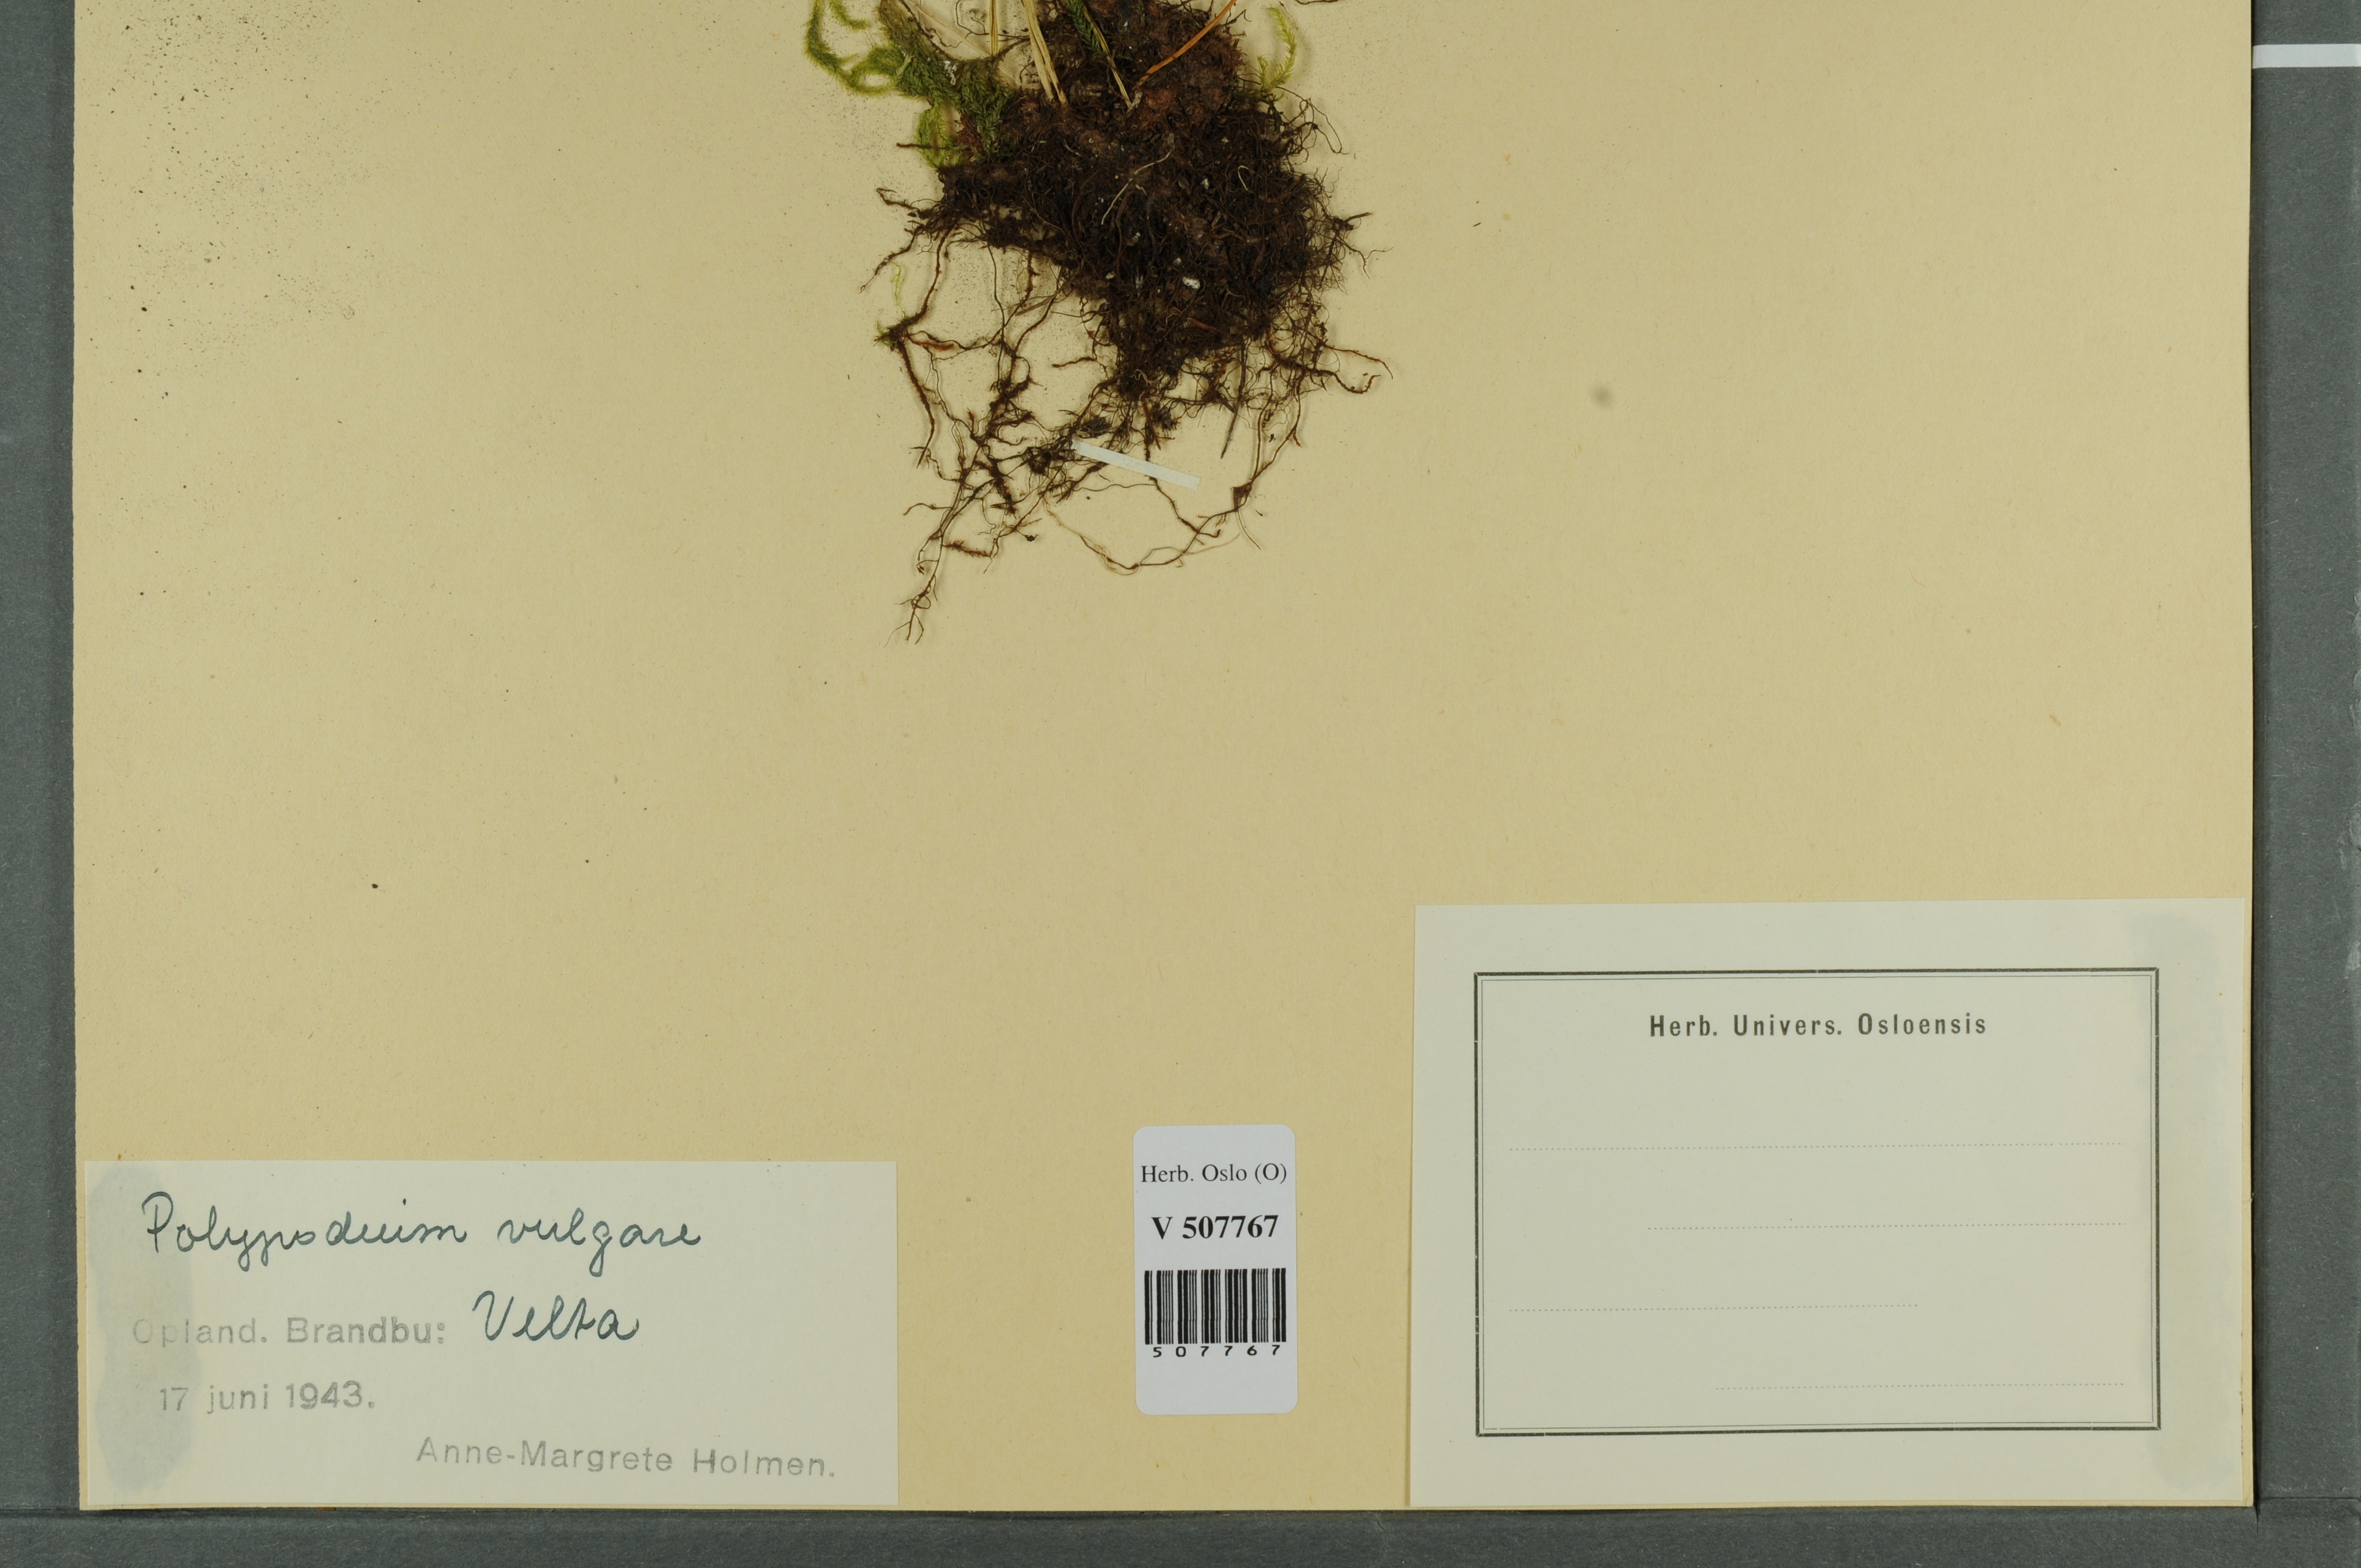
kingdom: Plantae
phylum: Tracheophyta
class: Polypodiopsida
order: Polypodiales
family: Polypodiaceae
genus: Polypodium
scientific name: Polypodium vulgare
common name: Common polypody
